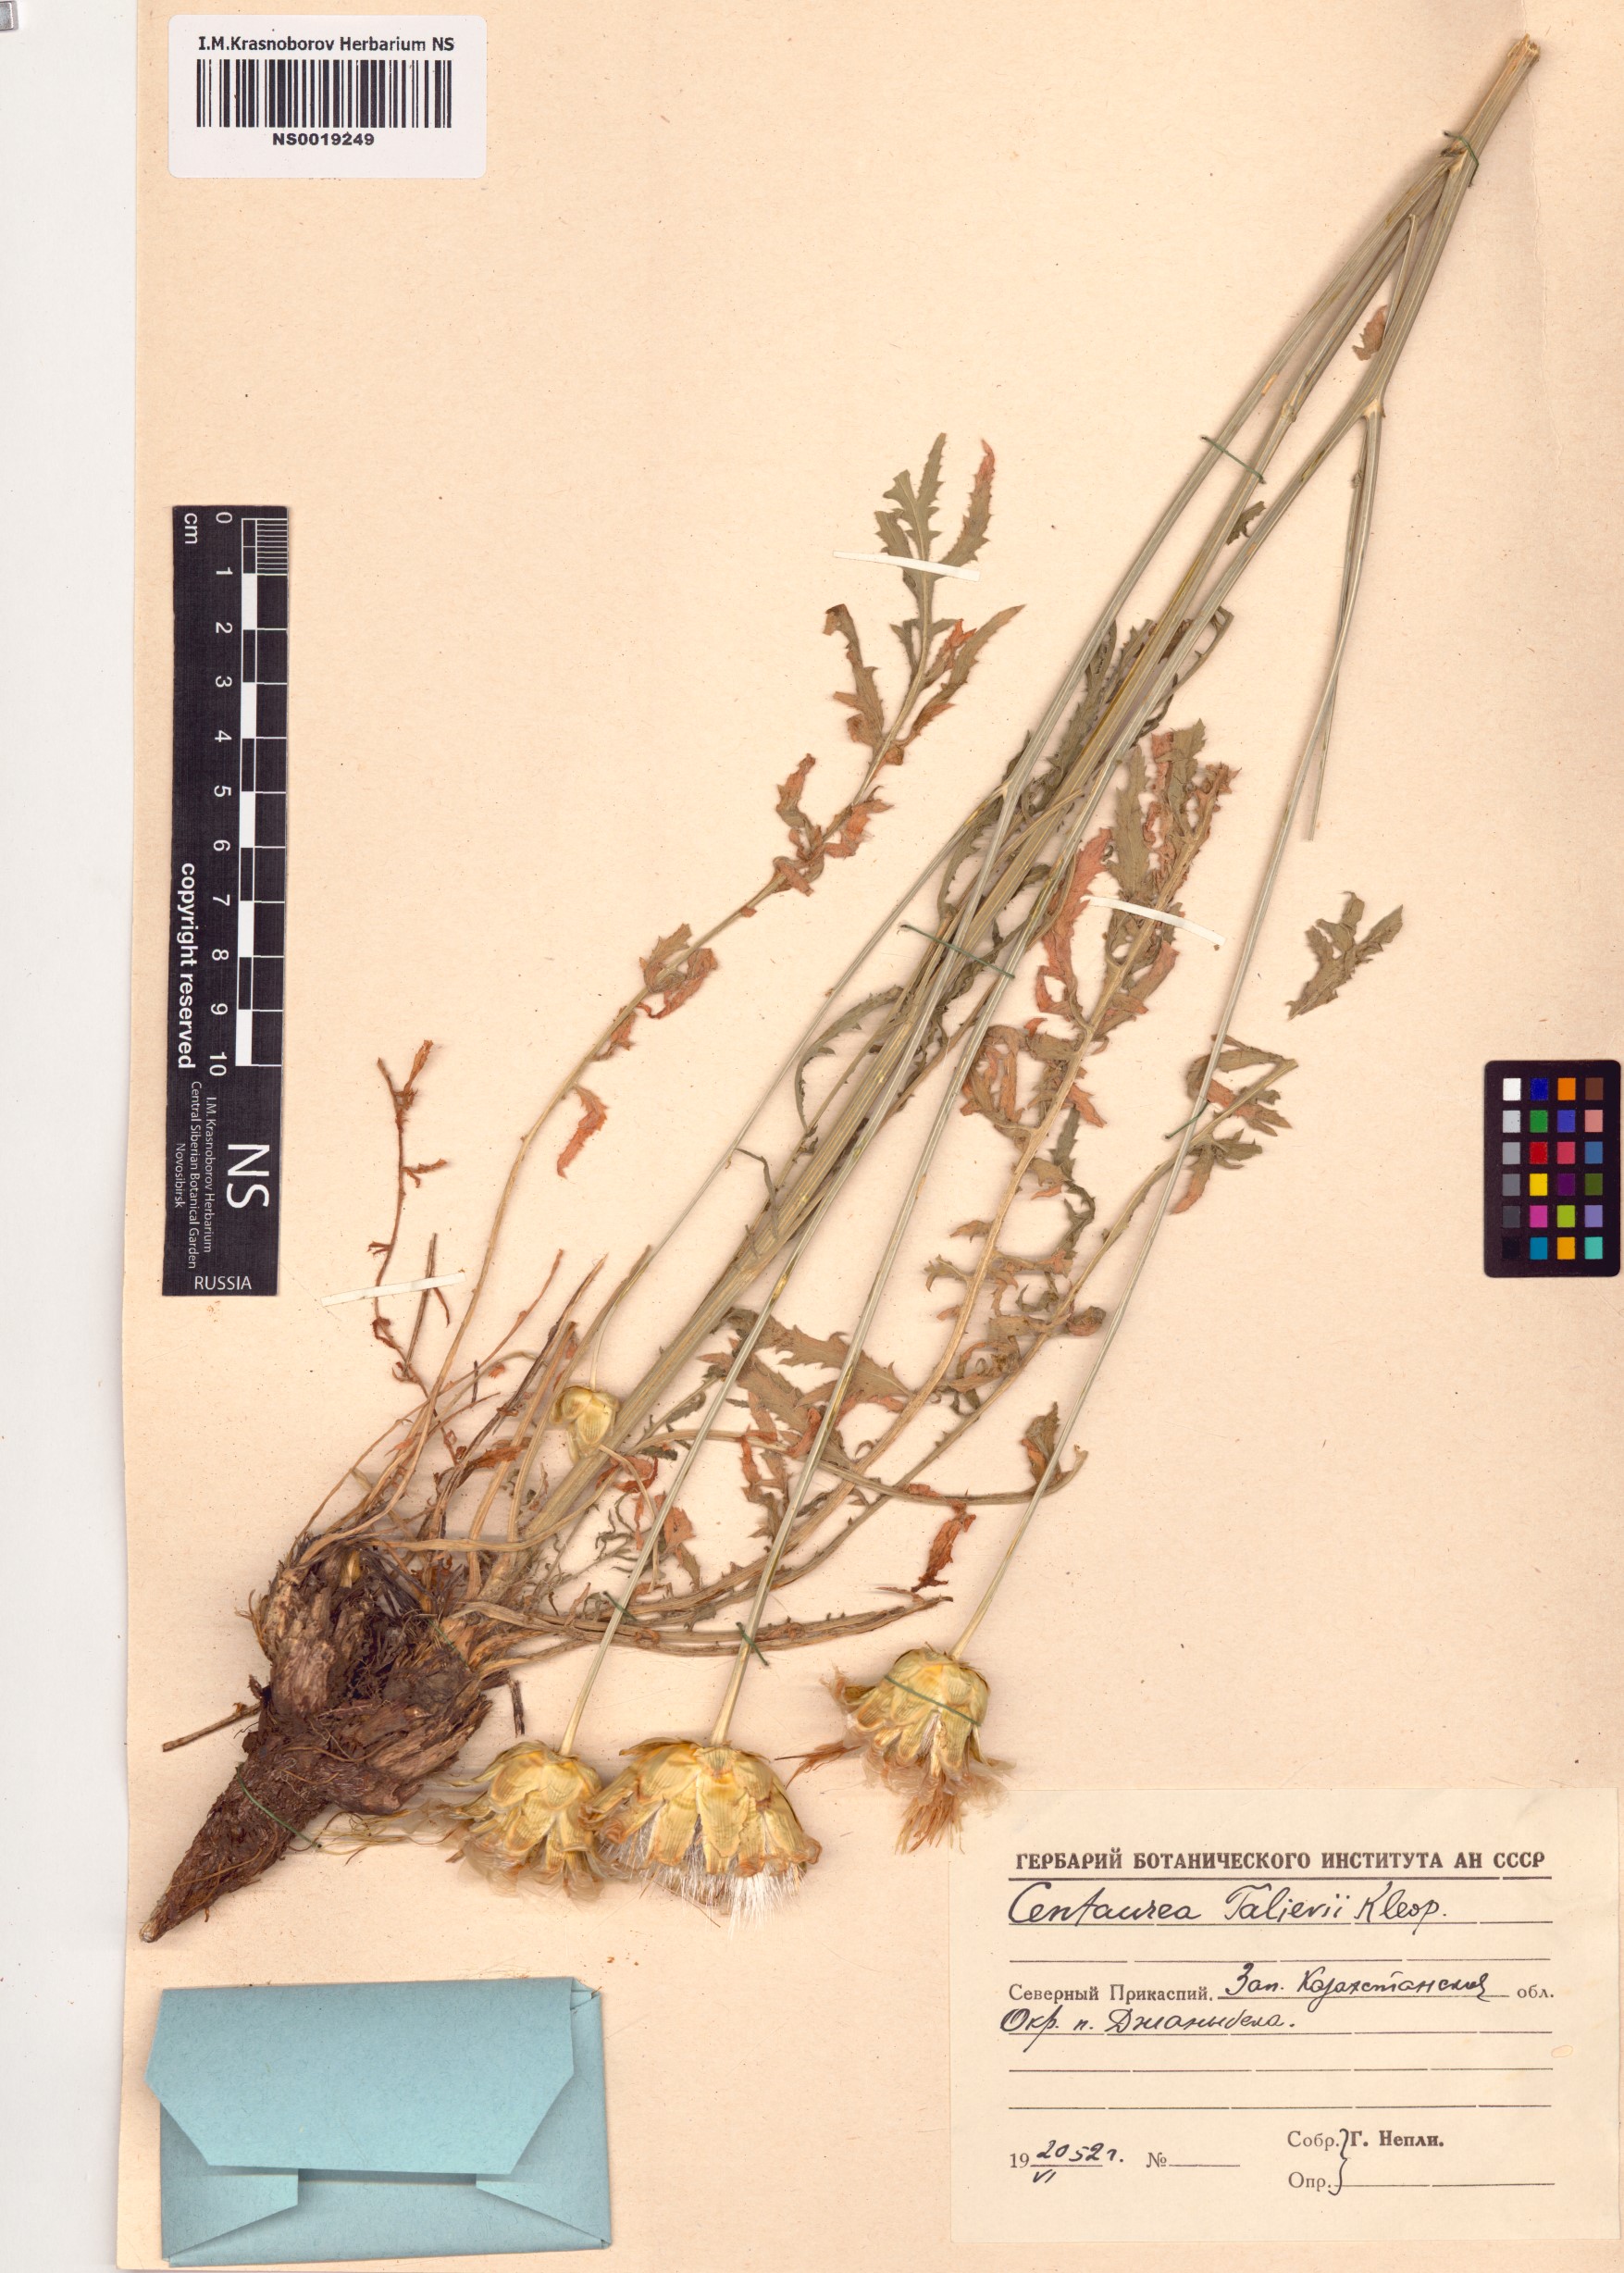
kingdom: Plantae
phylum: Tracheophyta
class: Magnoliopsida
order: Asterales
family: Asteraceae
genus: Rhaponticoides
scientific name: Rhaponticoides taliewii
